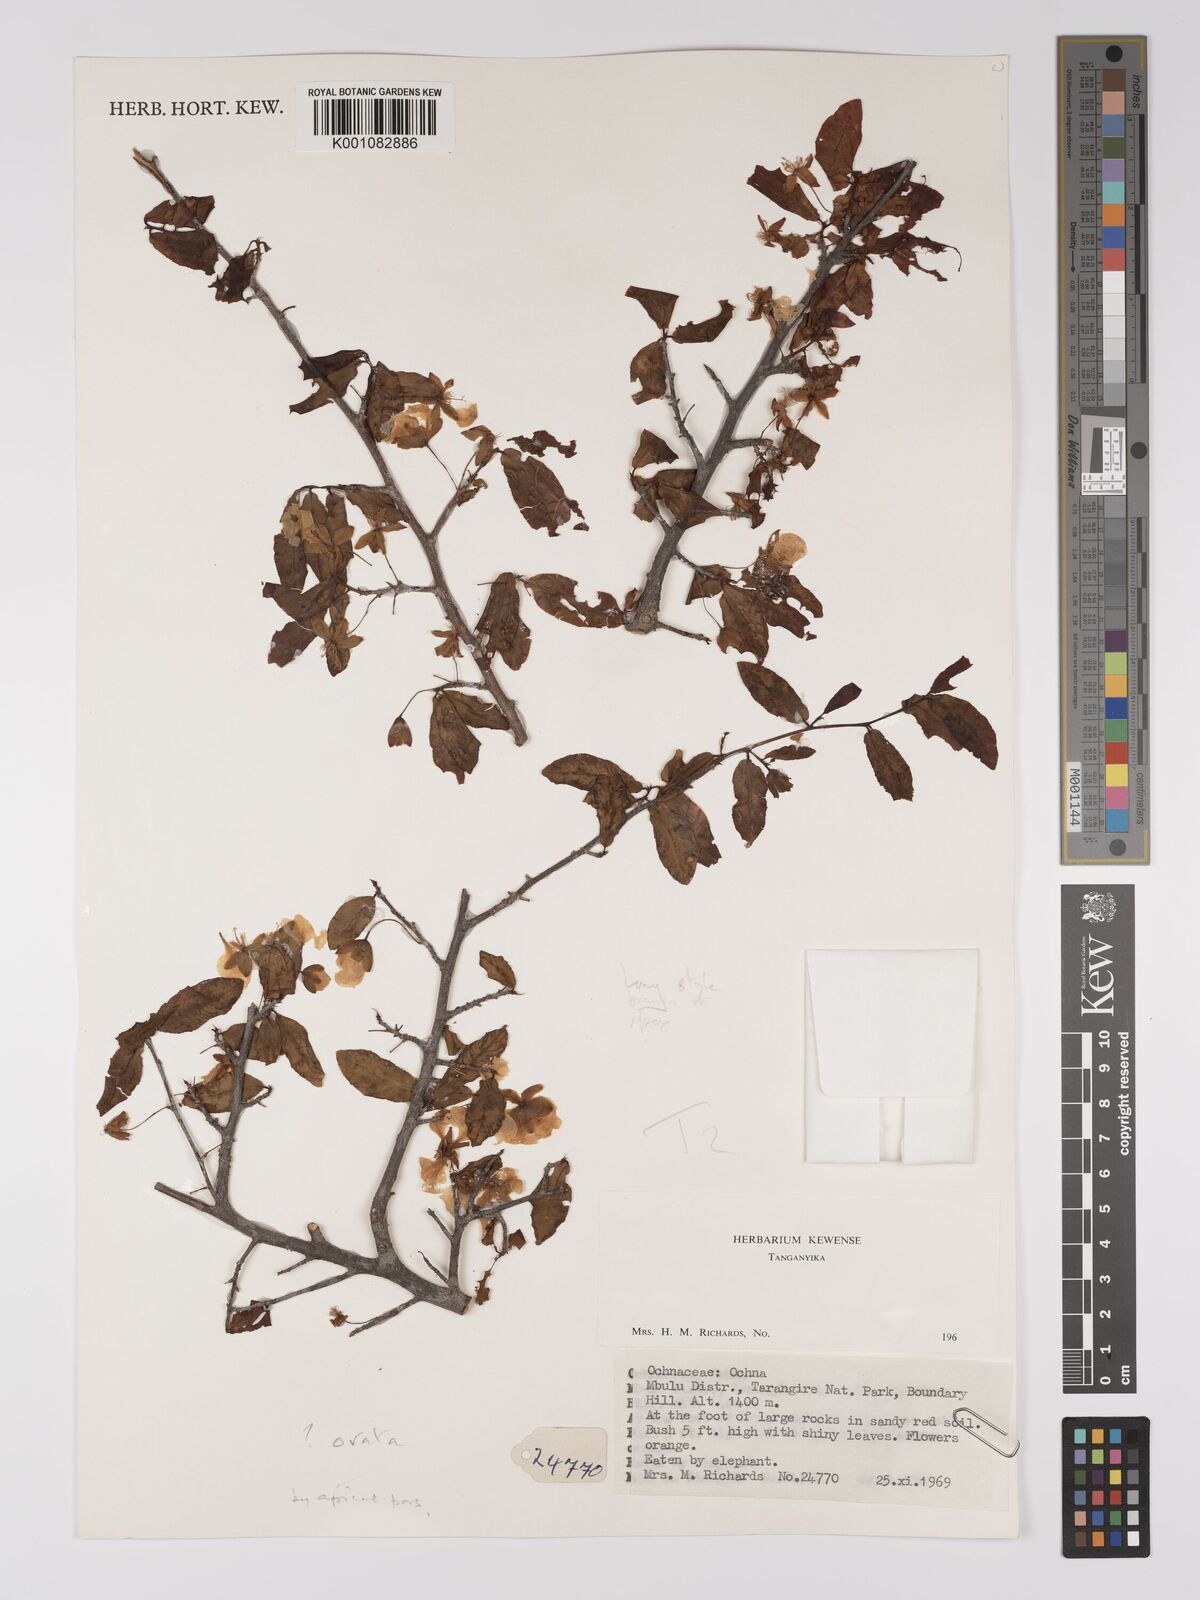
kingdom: Plantae
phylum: Tracheophyta
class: Magnoliopsida
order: Malpighiales
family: Ochnaceae
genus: Ochna
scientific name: Ochna ovata
